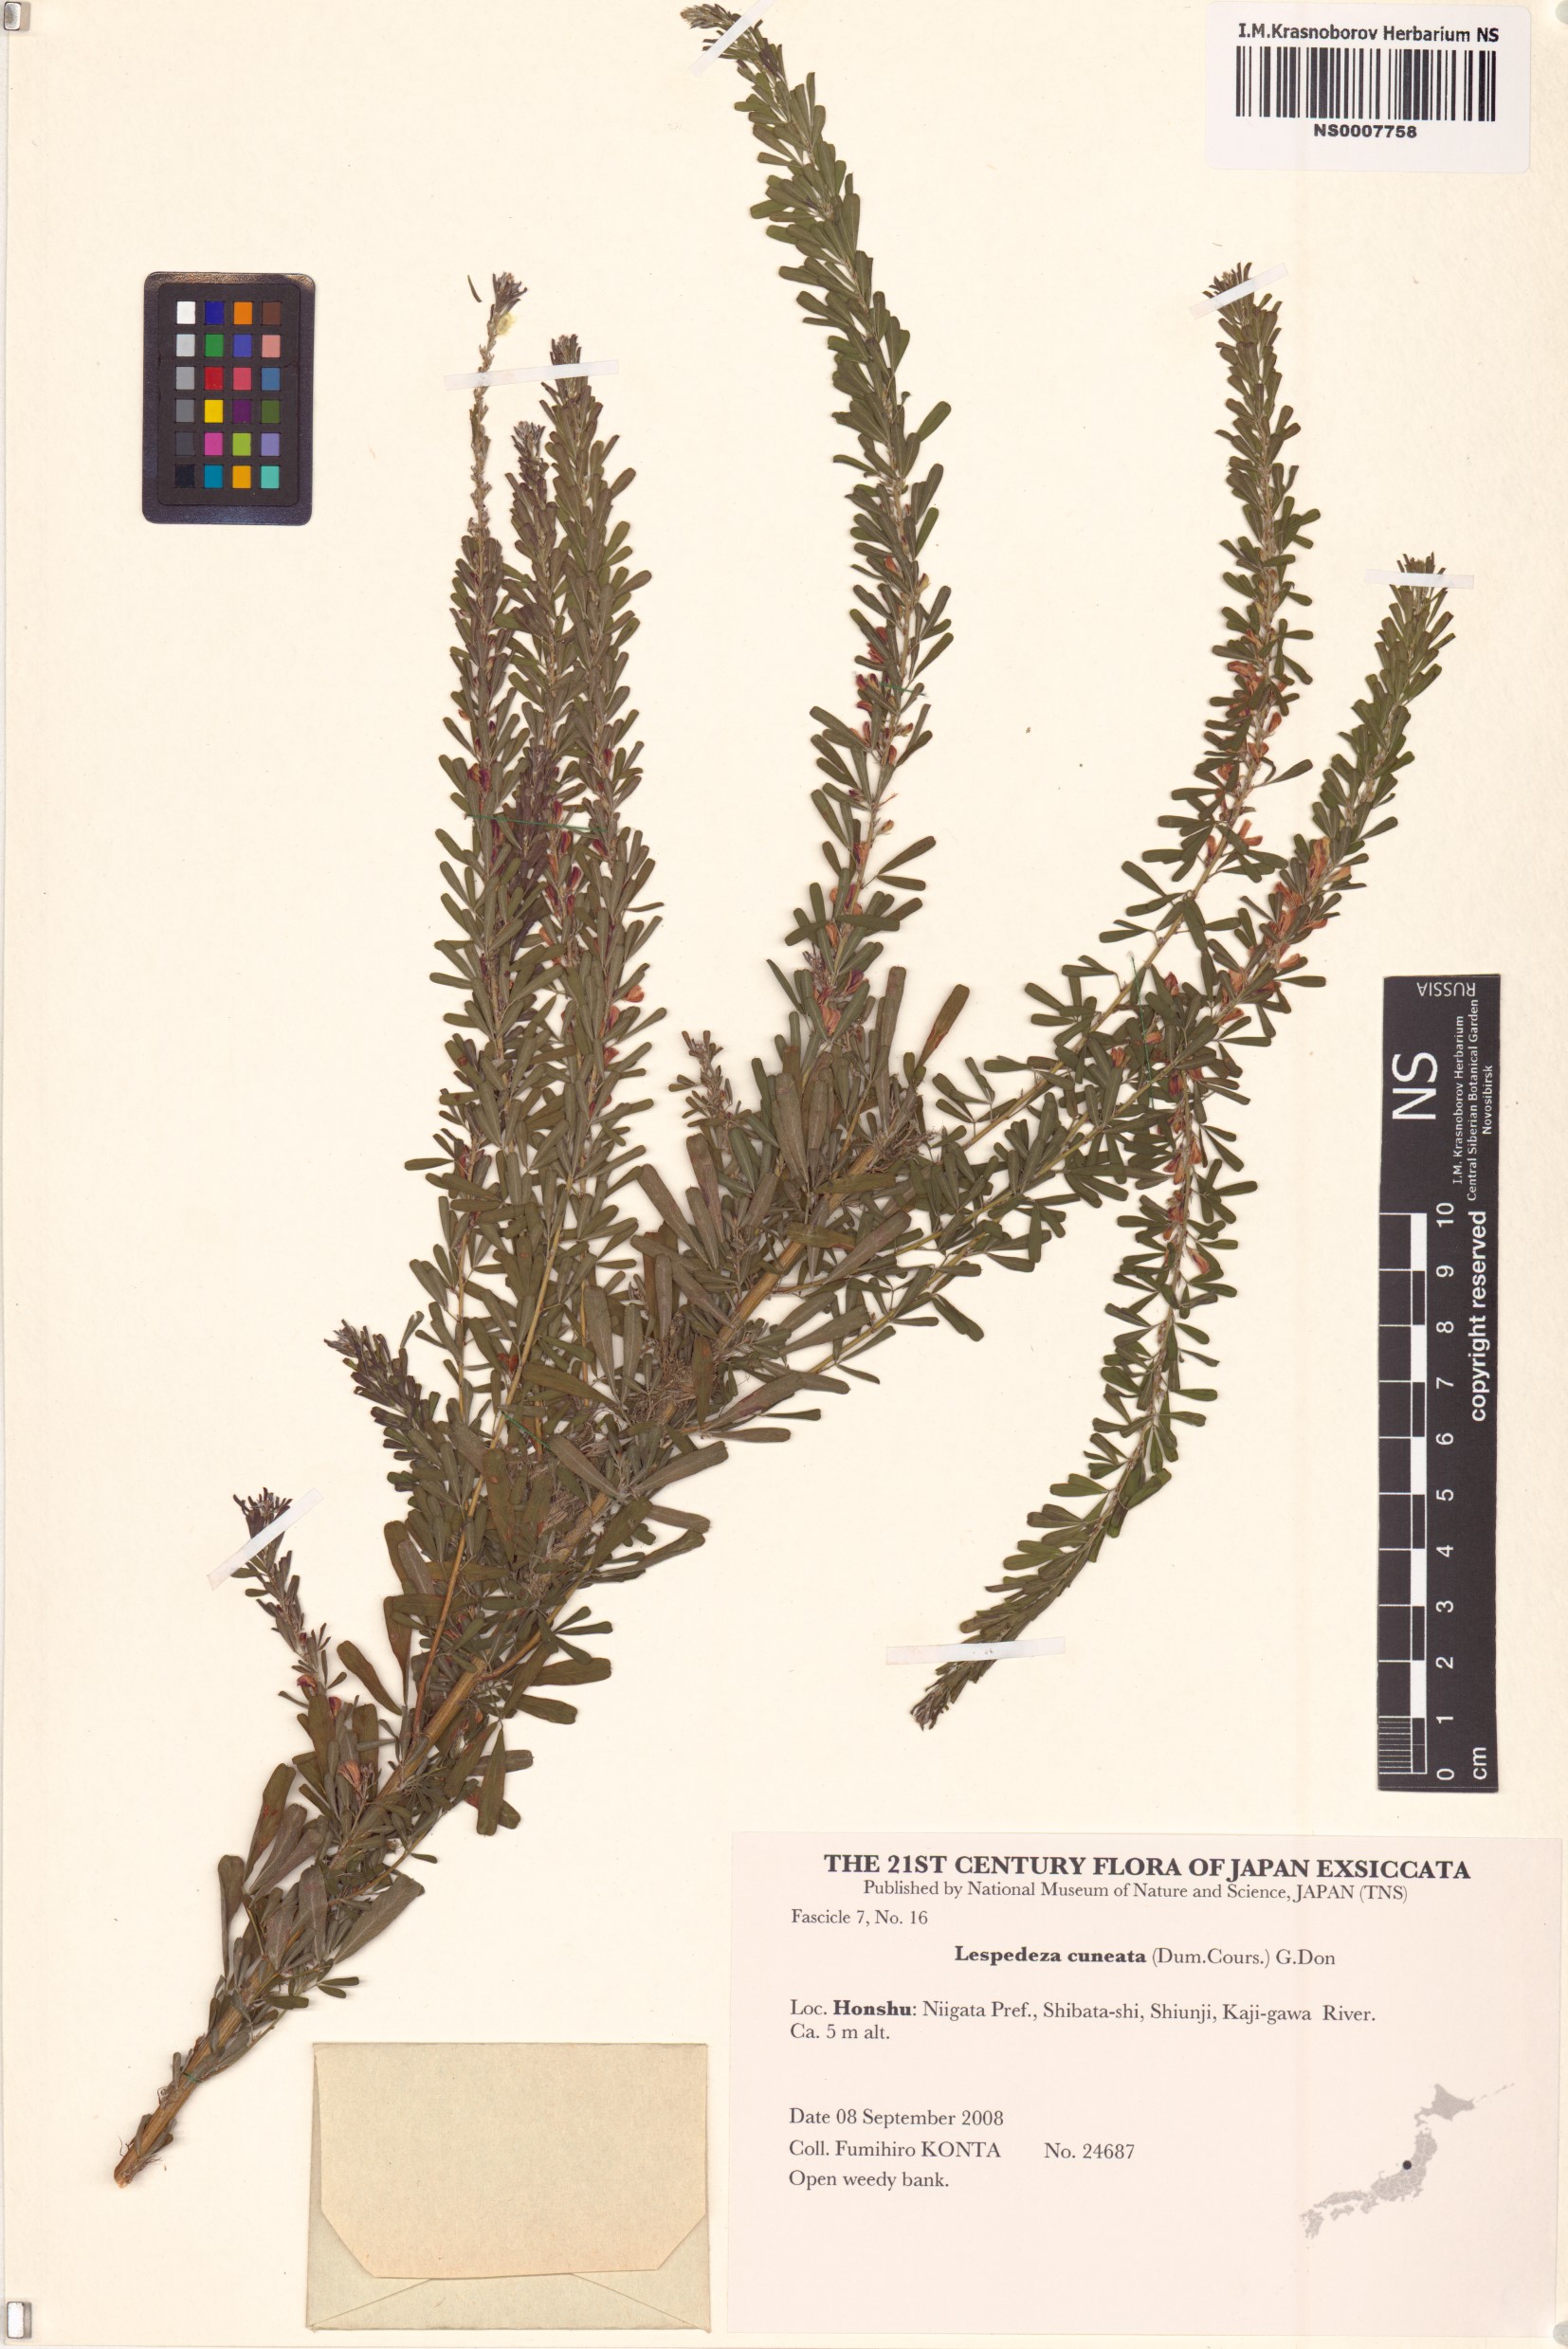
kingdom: Plantae
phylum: Tracheophyta
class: Magnoliopsida
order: Fabales
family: Fabaceae
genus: Lespedeza
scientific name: Lespedeza cuneata
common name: Chinese bush-clover
